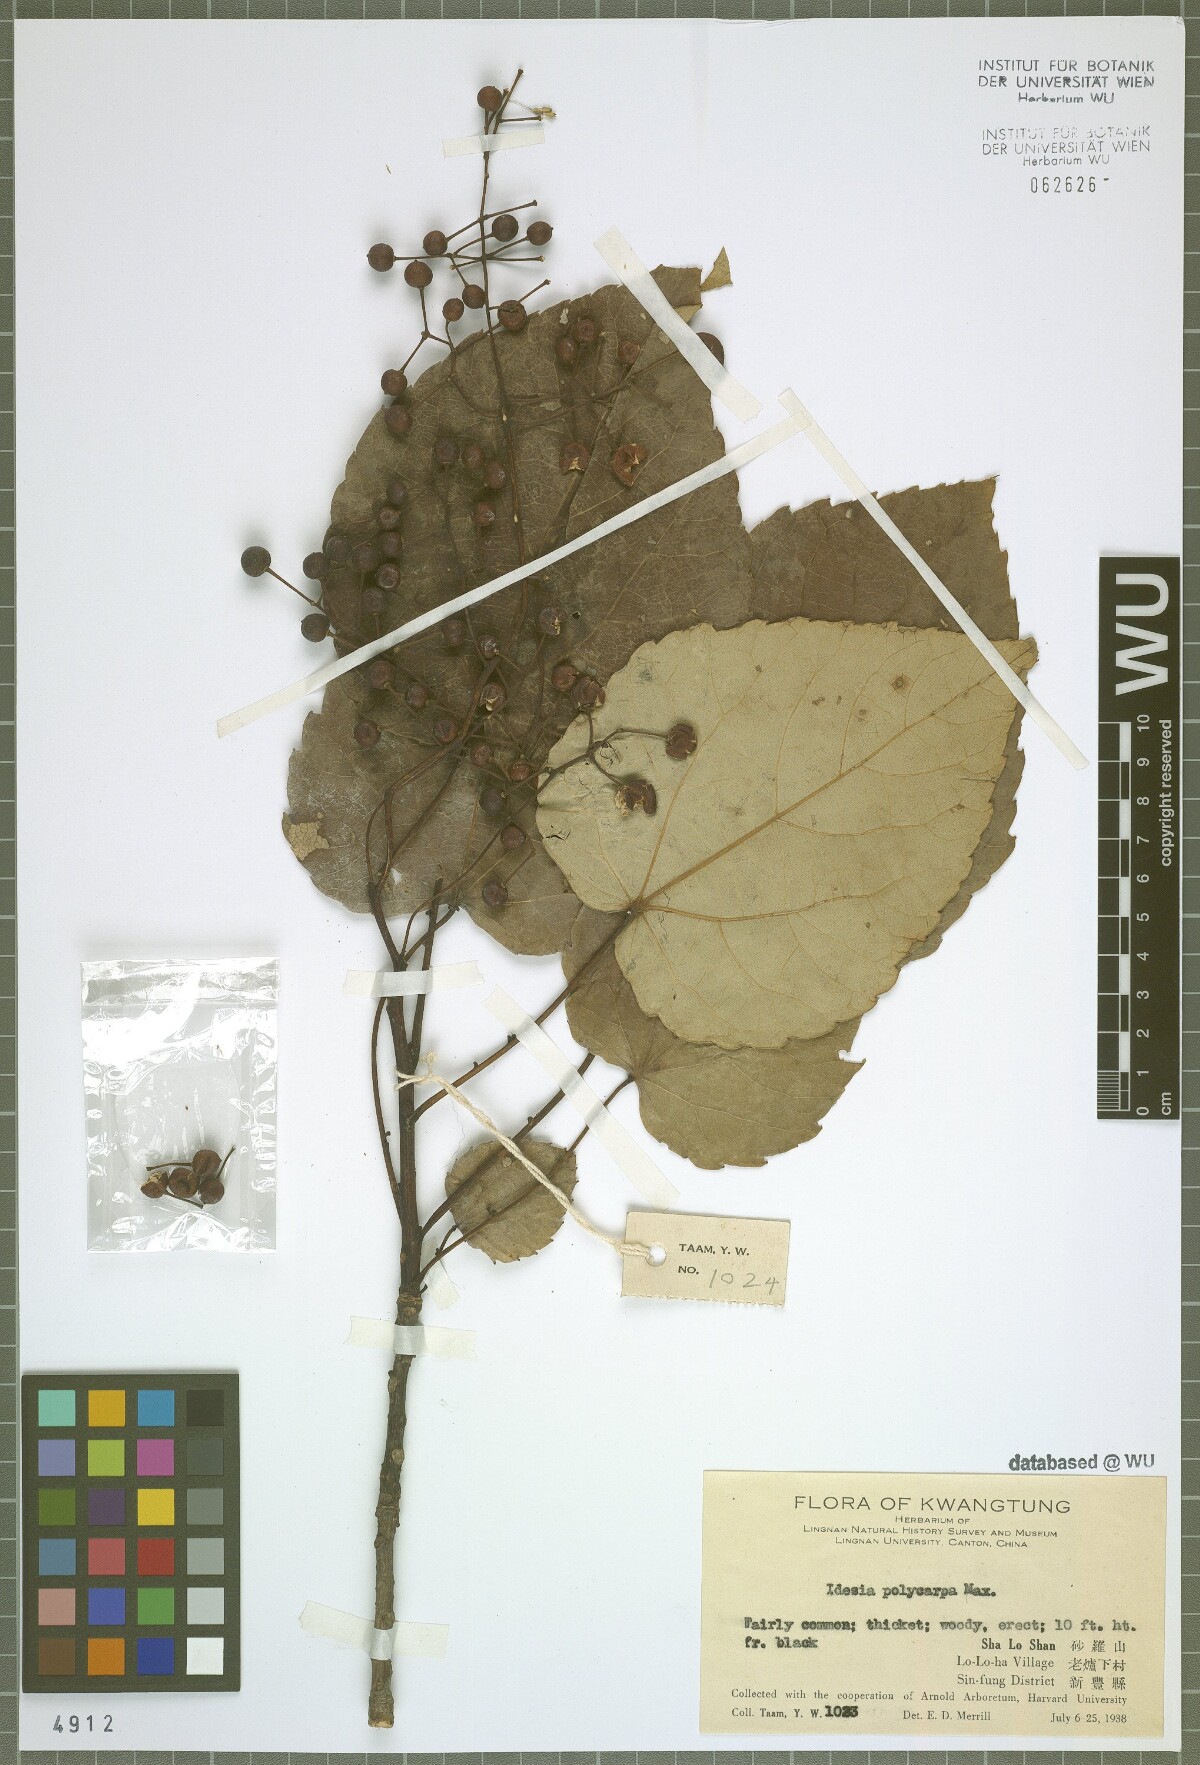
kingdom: Plantae
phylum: Tracheophyta
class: Magnoliopsida
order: Malpighiales
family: Salicaceae
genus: Idesia
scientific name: Idesia polycarpa
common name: Idesia tree
